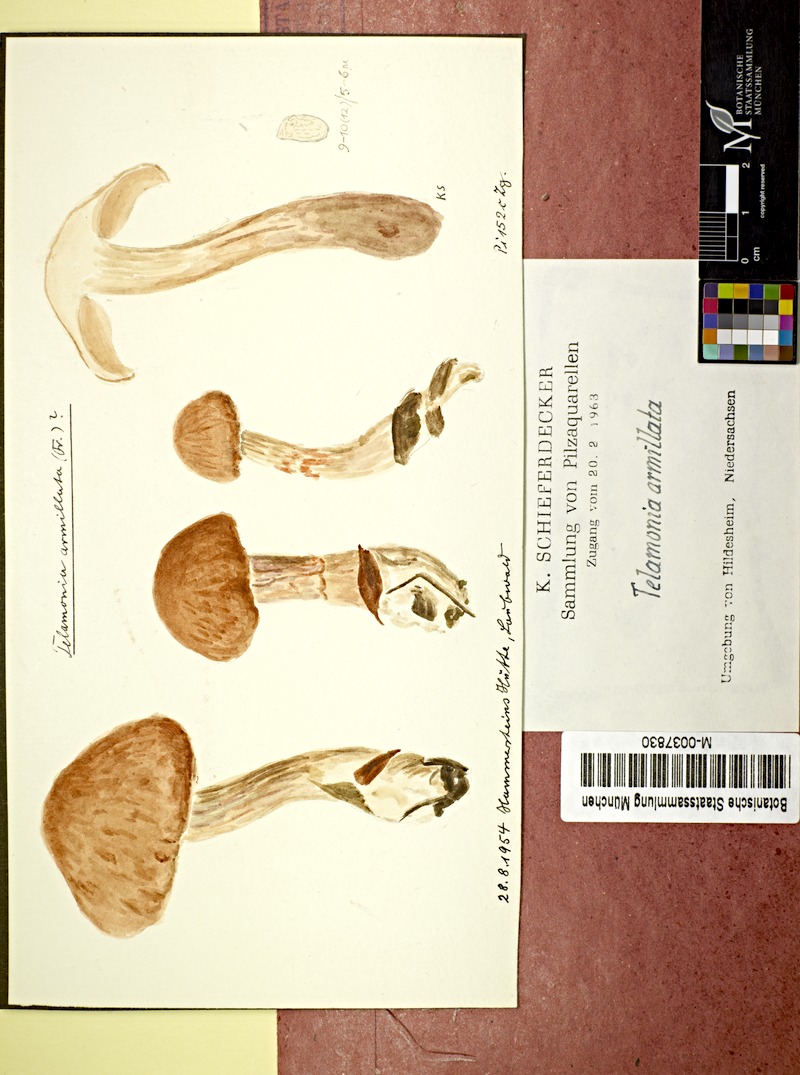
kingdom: Fungi
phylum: Basidiomycota
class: Agaricomycetes
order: Agaricales
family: Cortinariaceae
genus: Cortinarius
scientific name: Cortinarius armillatus
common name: Red banded webcap
